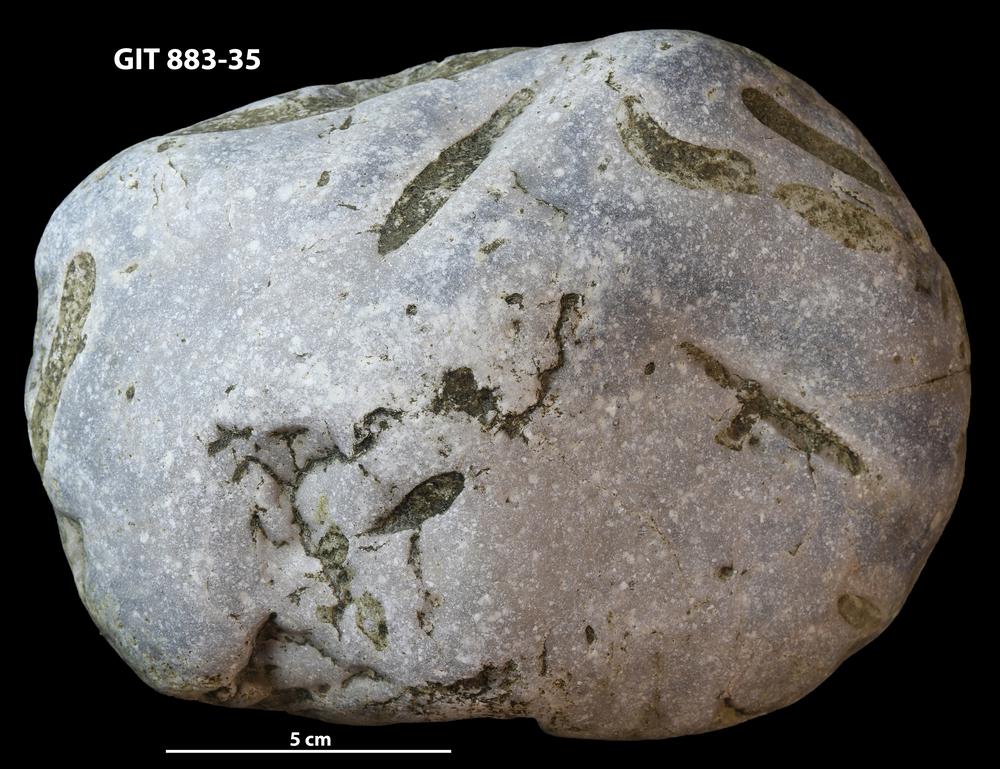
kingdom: Animalia
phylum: Porifera
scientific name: Porifera
